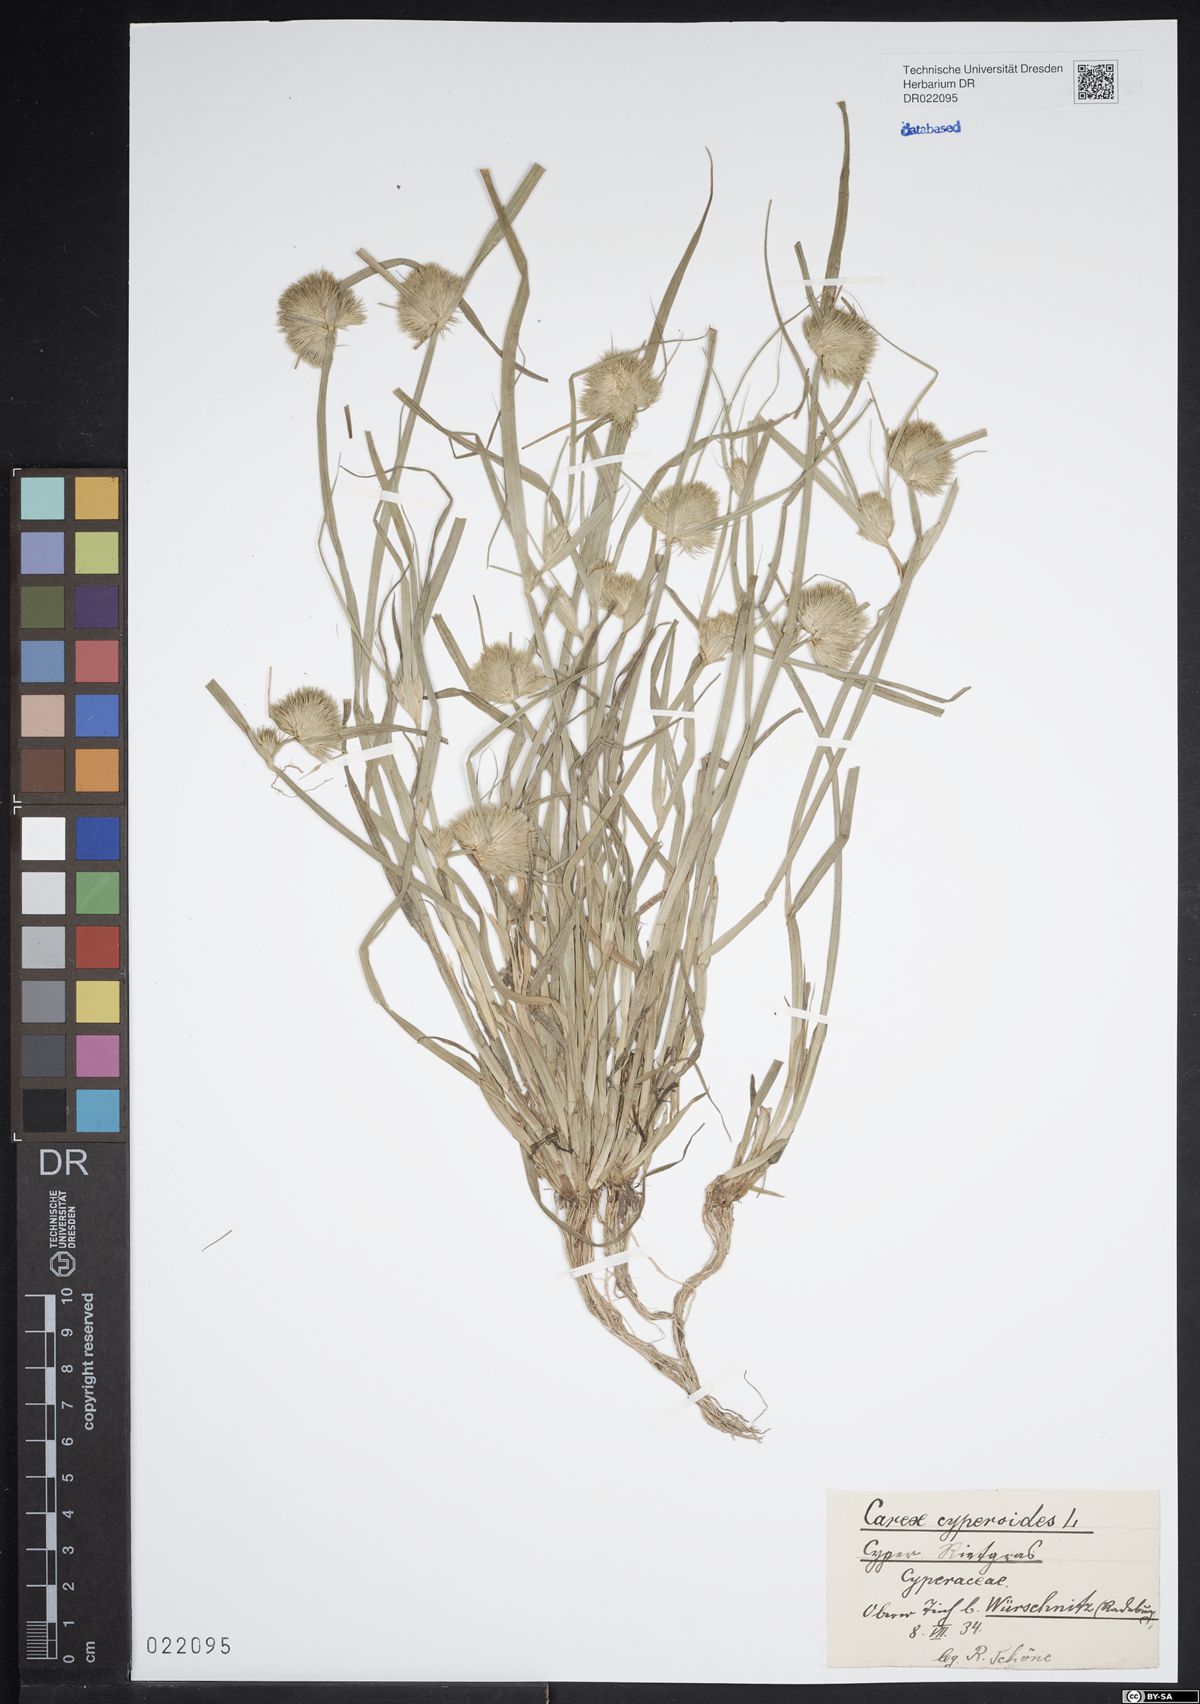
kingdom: Plantae
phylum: Tracheophyta
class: Liliopsida
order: Poales
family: Cyperaceae
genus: Carex
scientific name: Carex bohemica
